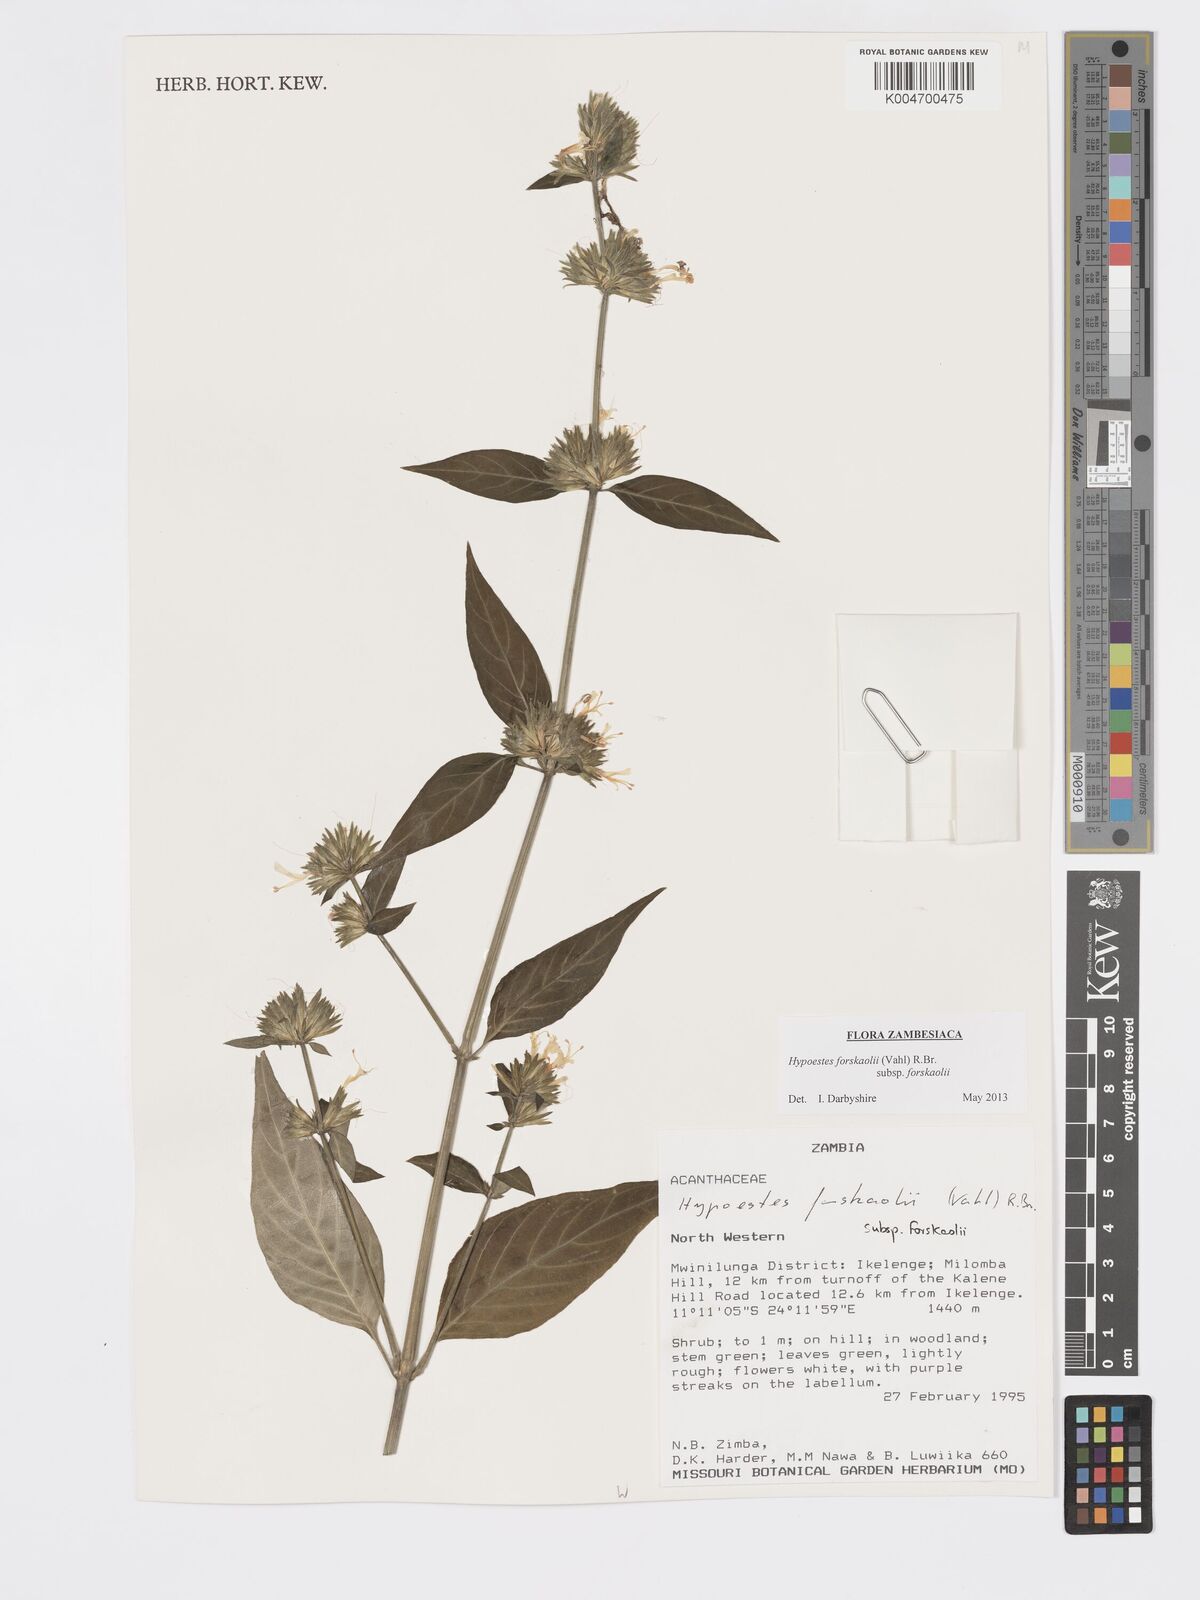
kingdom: Plantae
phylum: Tracheophyta
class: Magnoliopsida
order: Lamiales
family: Acanthaceae
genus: Hypoestes
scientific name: Hypoestes forskaolii
